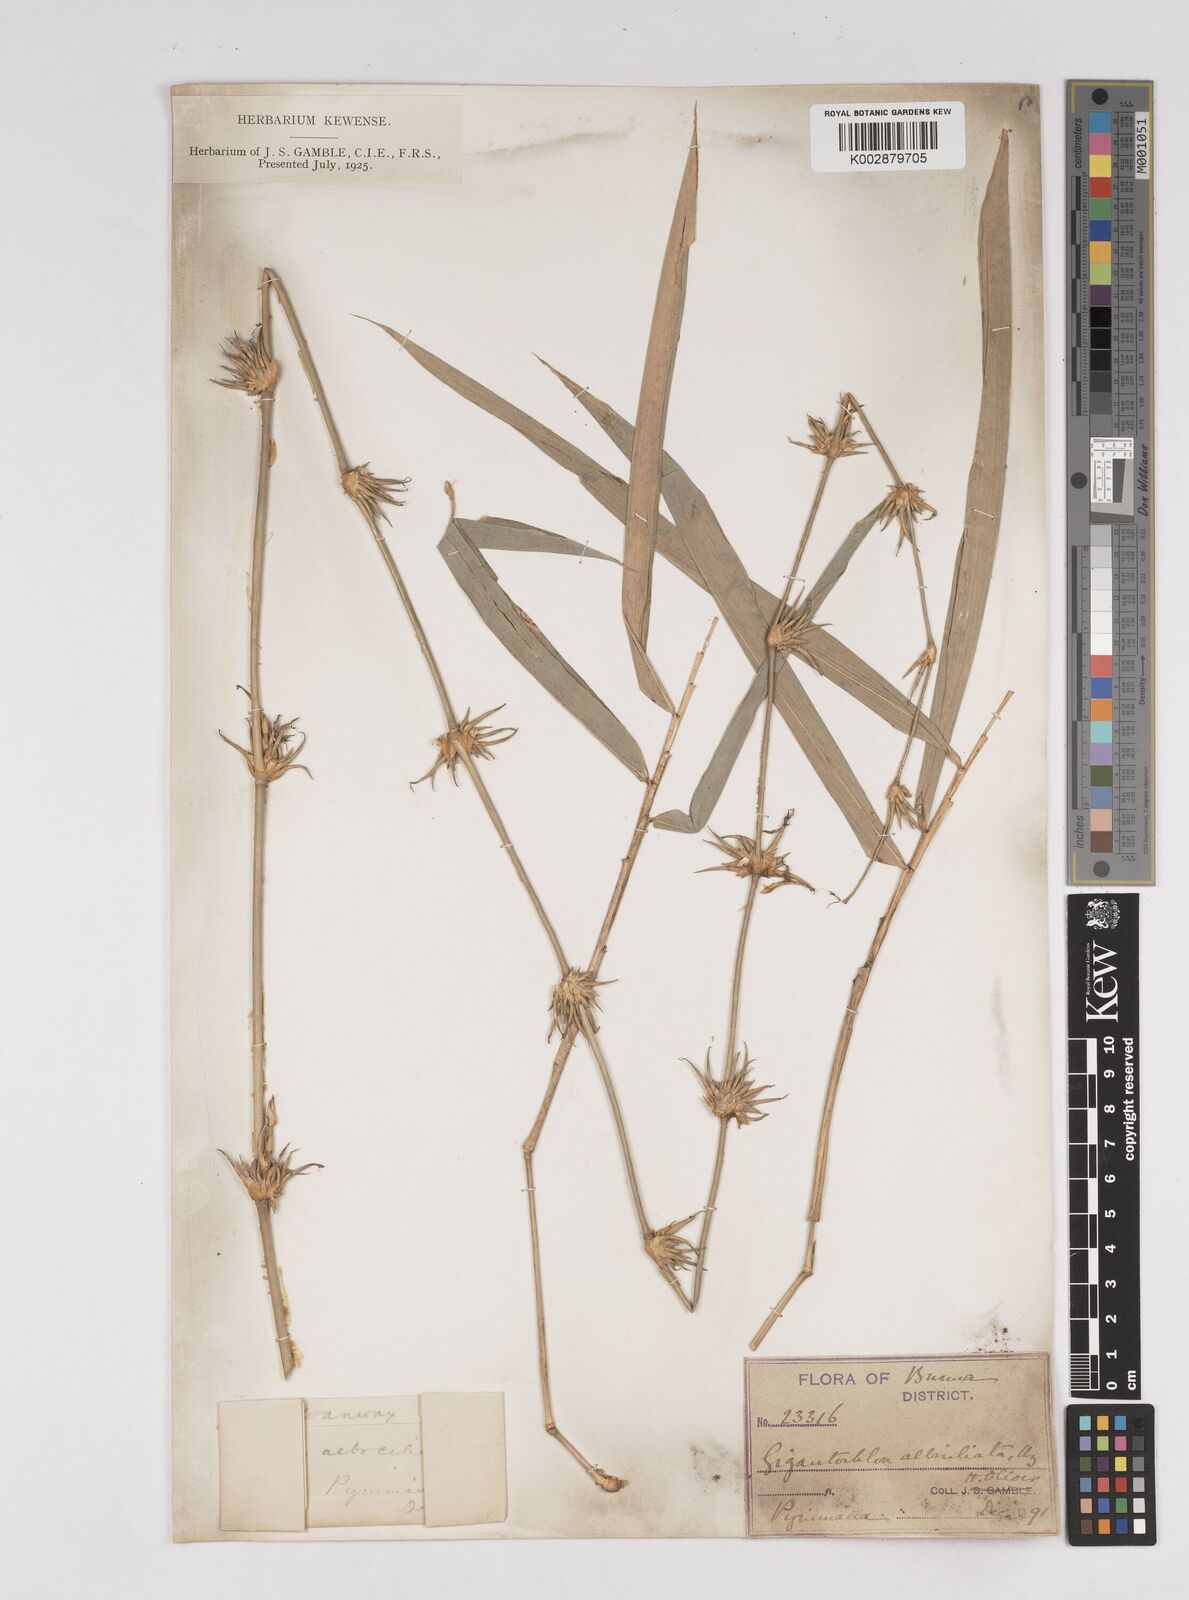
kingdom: Plantae
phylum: Tracheophyta
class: Liliopsida
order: Poales
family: Poaceae
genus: Gigantochloa
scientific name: Gigantochloa albociliata
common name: White-fringe gigantochloa
